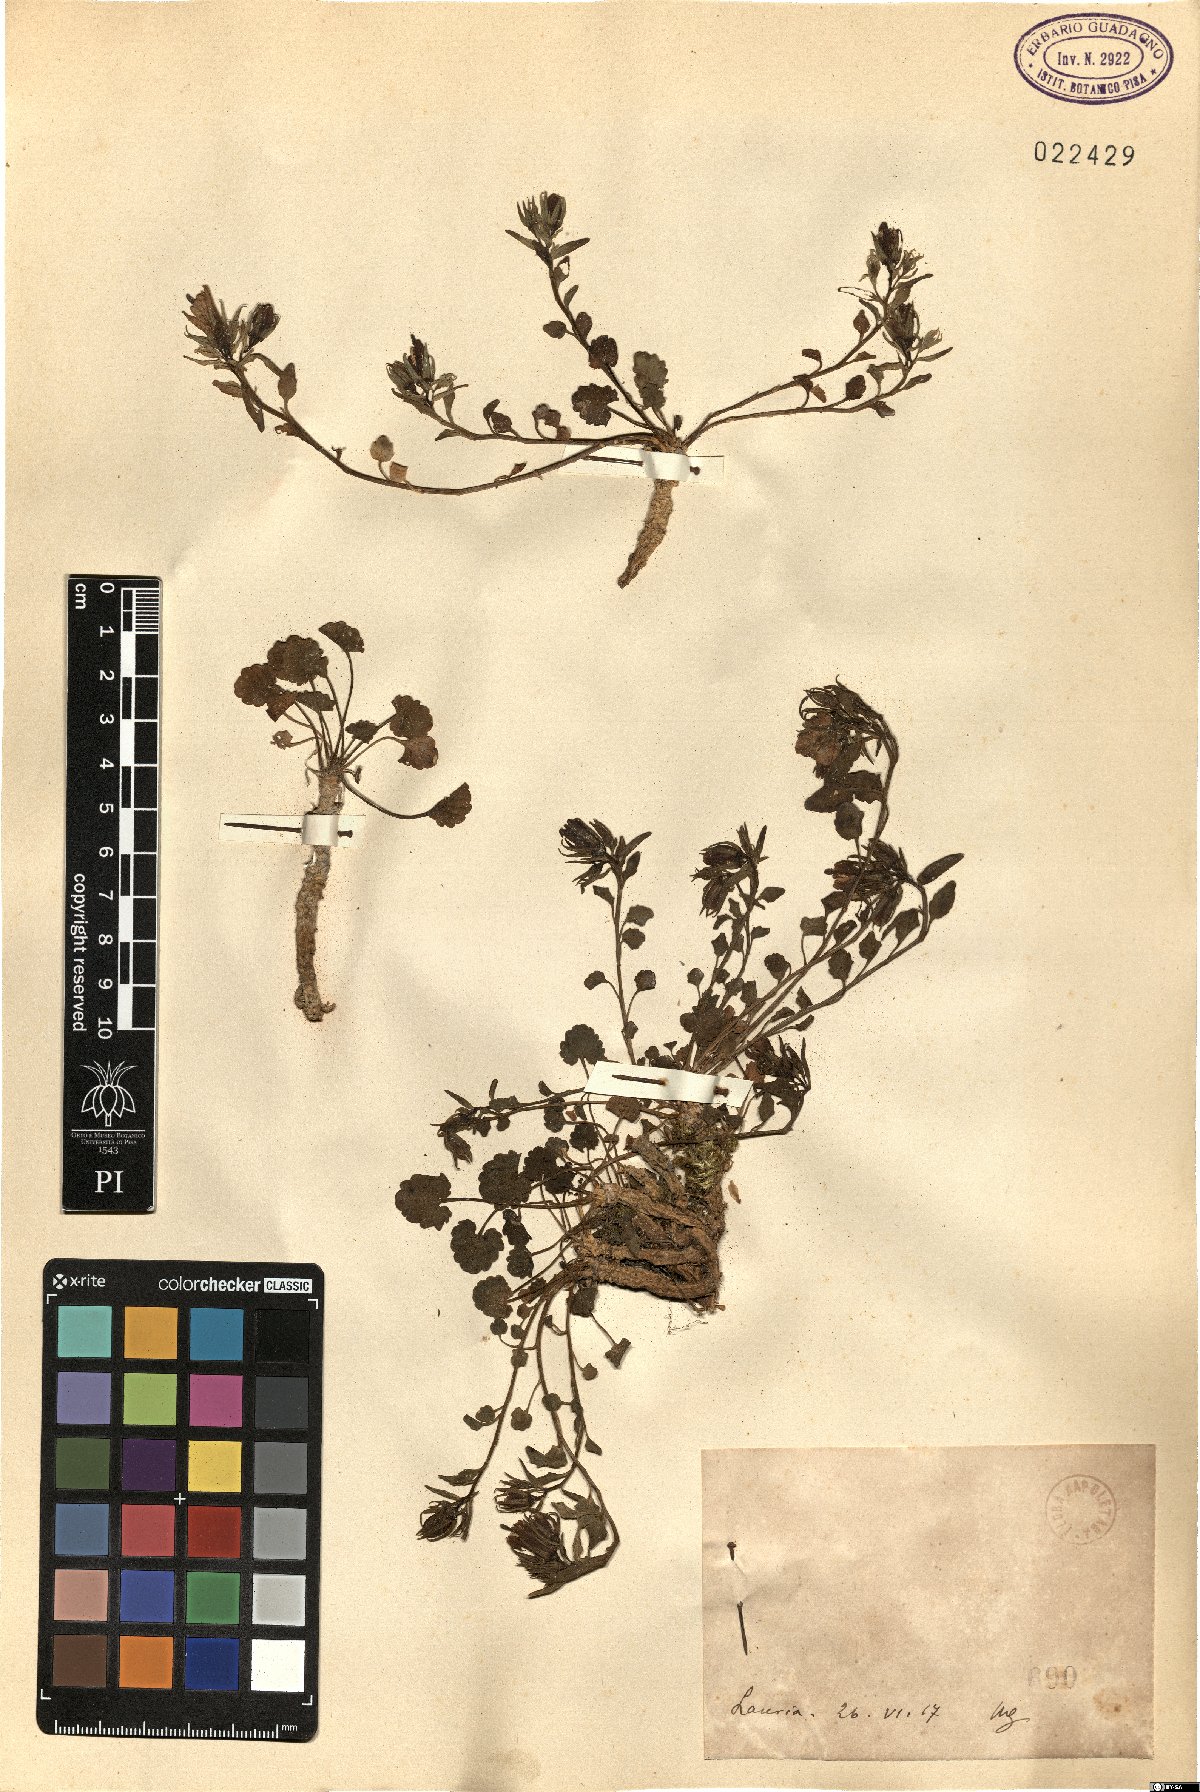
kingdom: Plantae
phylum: Tracheophyta
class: Magnoliopsida
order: Asterales
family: Campanulaceae
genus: Campanula
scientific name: Campanula
